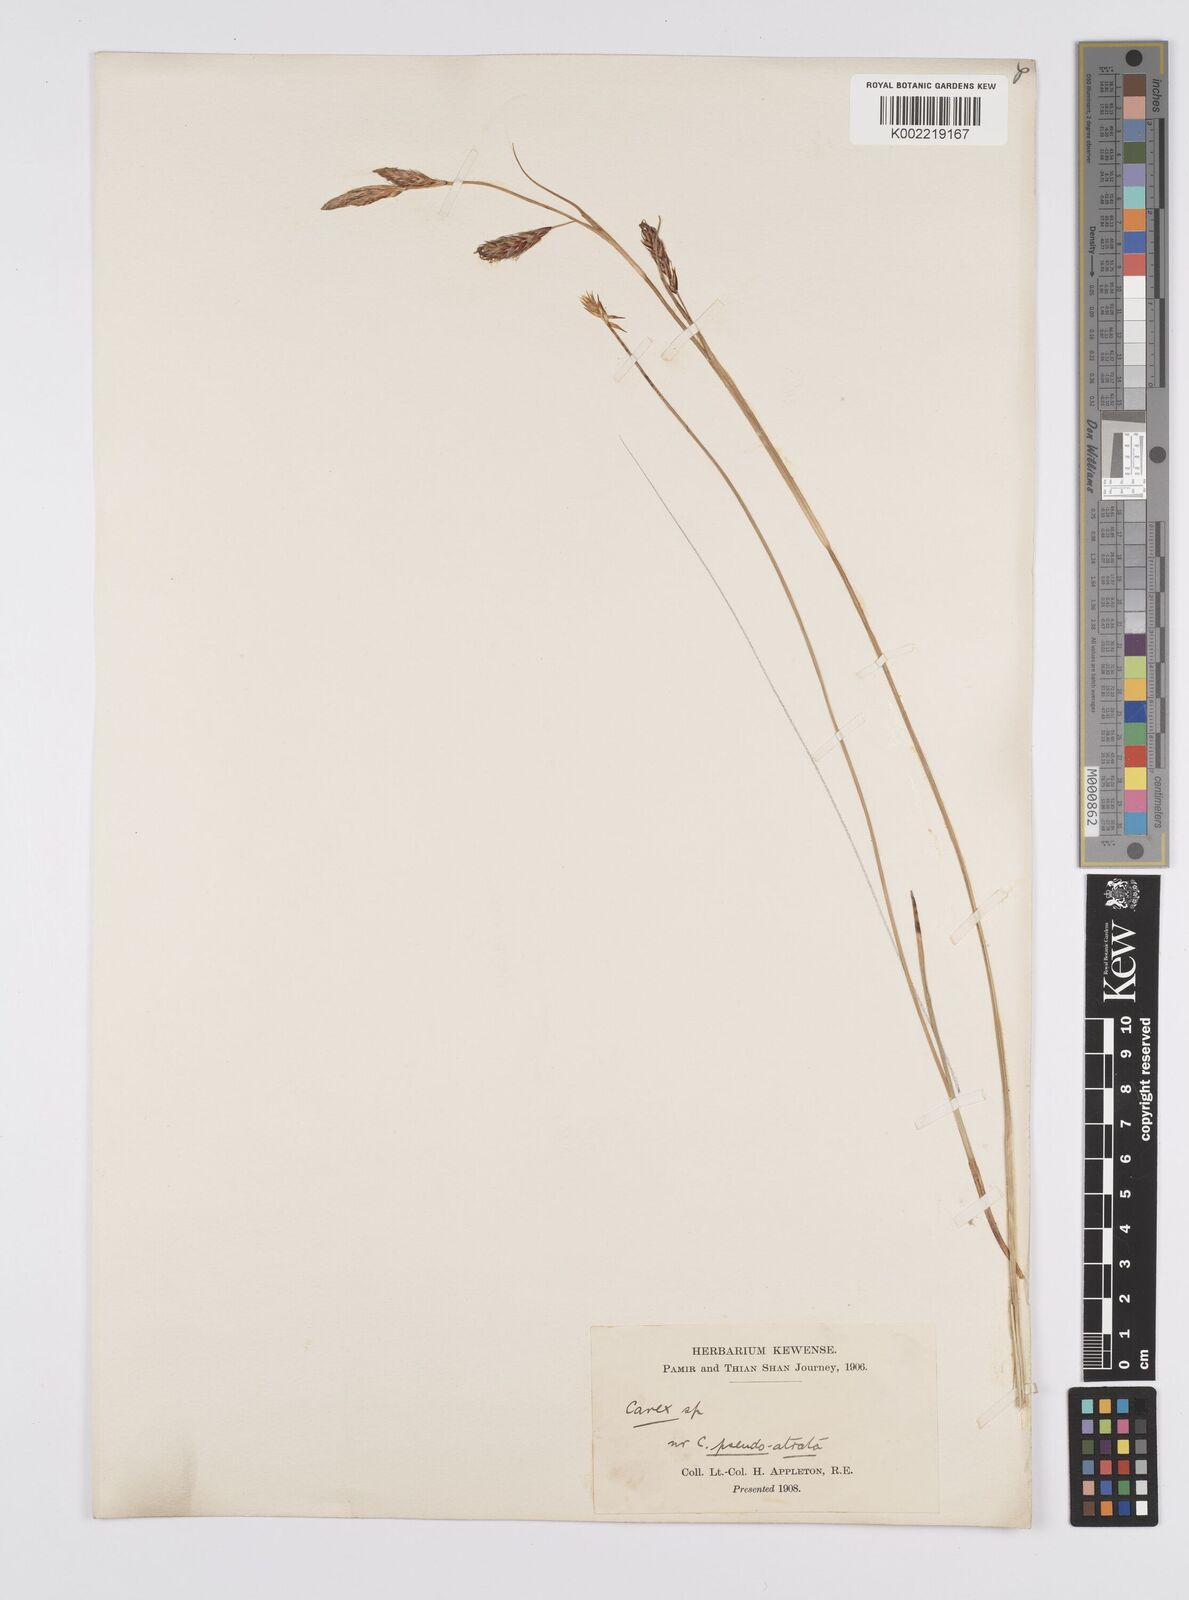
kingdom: Plantae
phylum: Tracheophyta
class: Liliopsida
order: Poales
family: Cyperaceae
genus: Carex
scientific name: Carex
